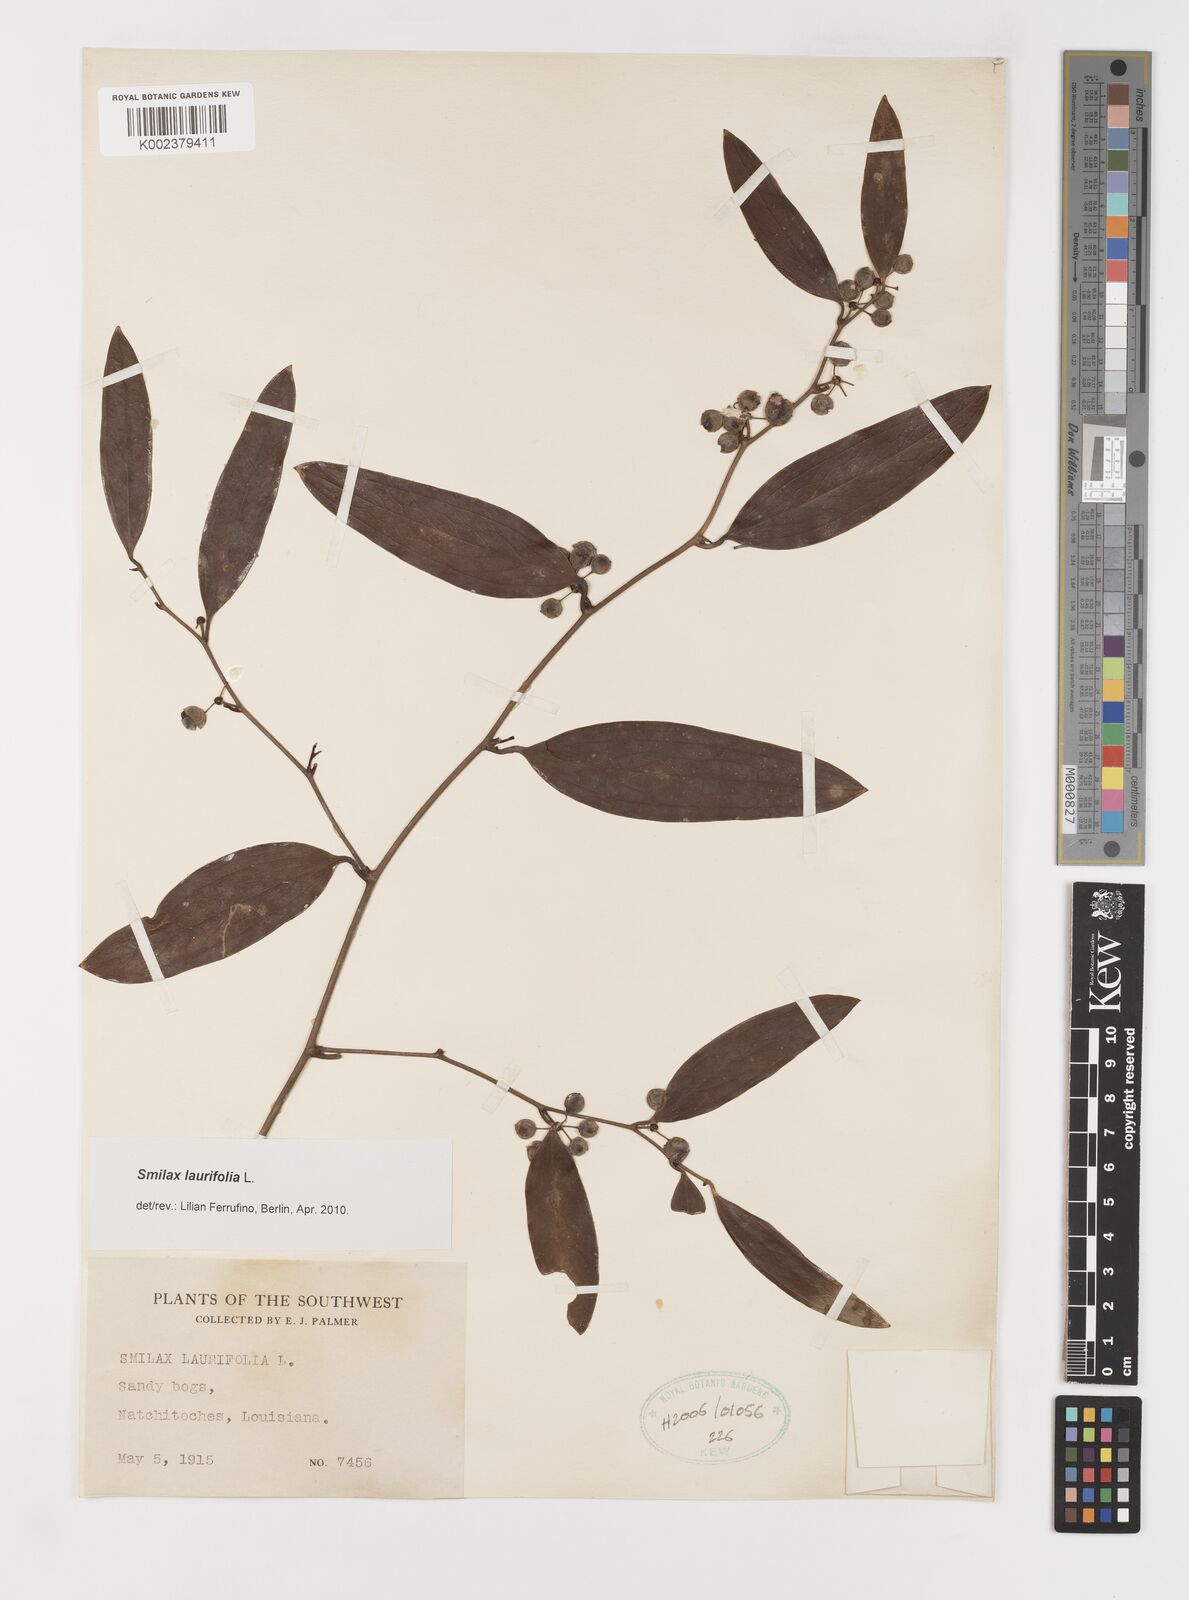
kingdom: Plantae
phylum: Tracheophyta
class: Liliopsida
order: Liliales
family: Smilacaceae
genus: Smilax
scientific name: Smilax laurifolia
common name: Bamboovine
